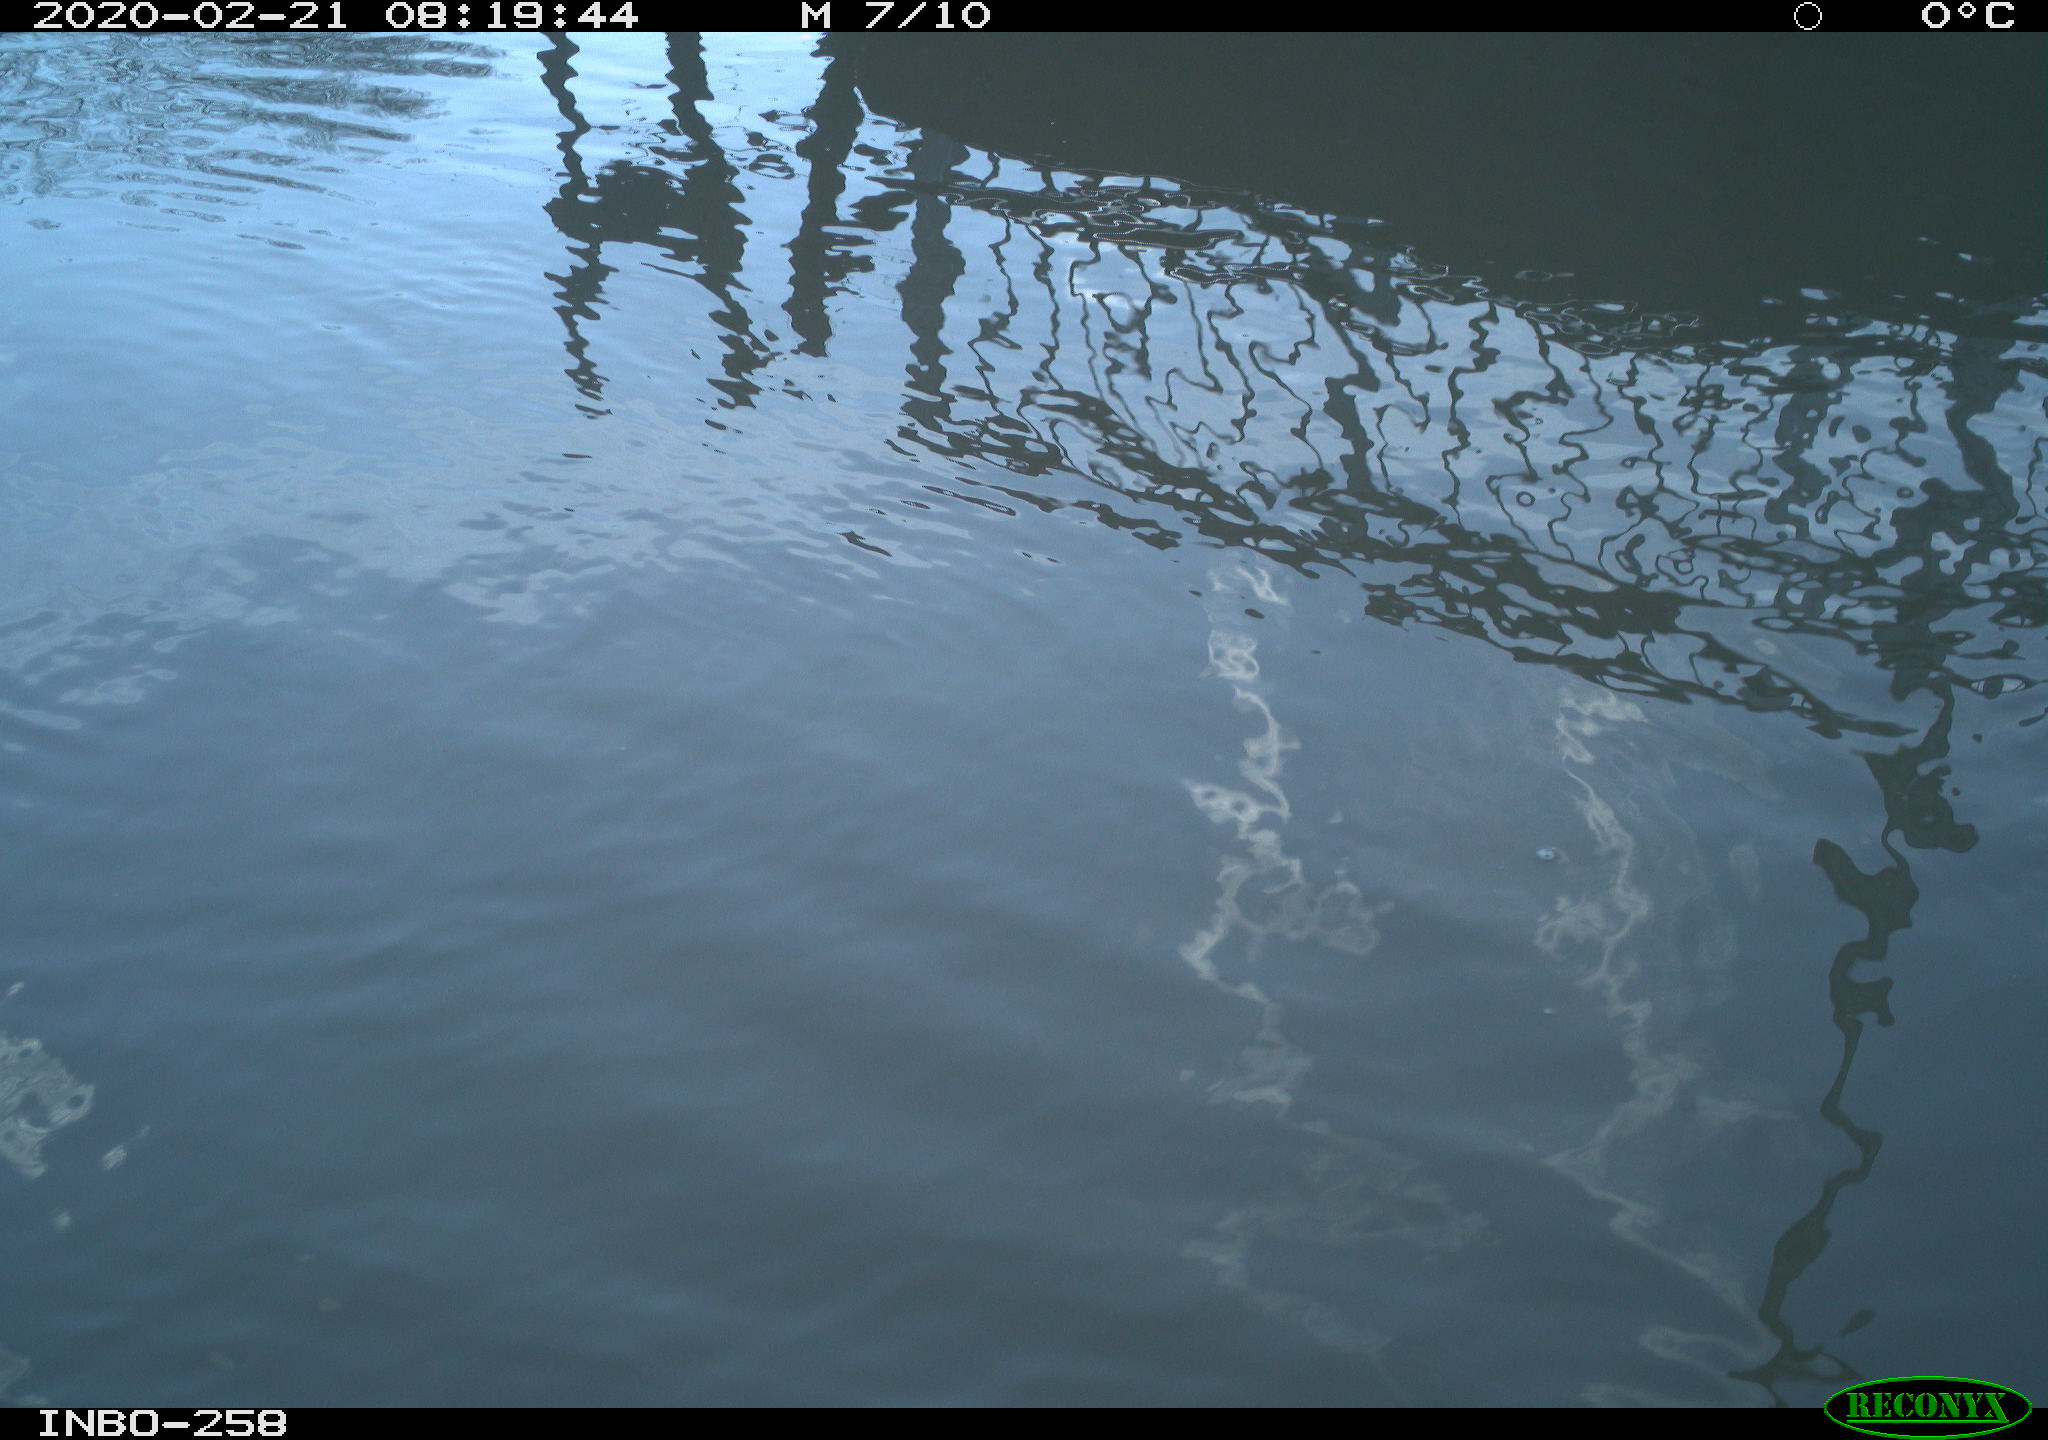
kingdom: Animalia
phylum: Chordata
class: Aves
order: Anseriformes
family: Anatidae
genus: Anas
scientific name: Anas platyrhynchos
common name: Mallard
